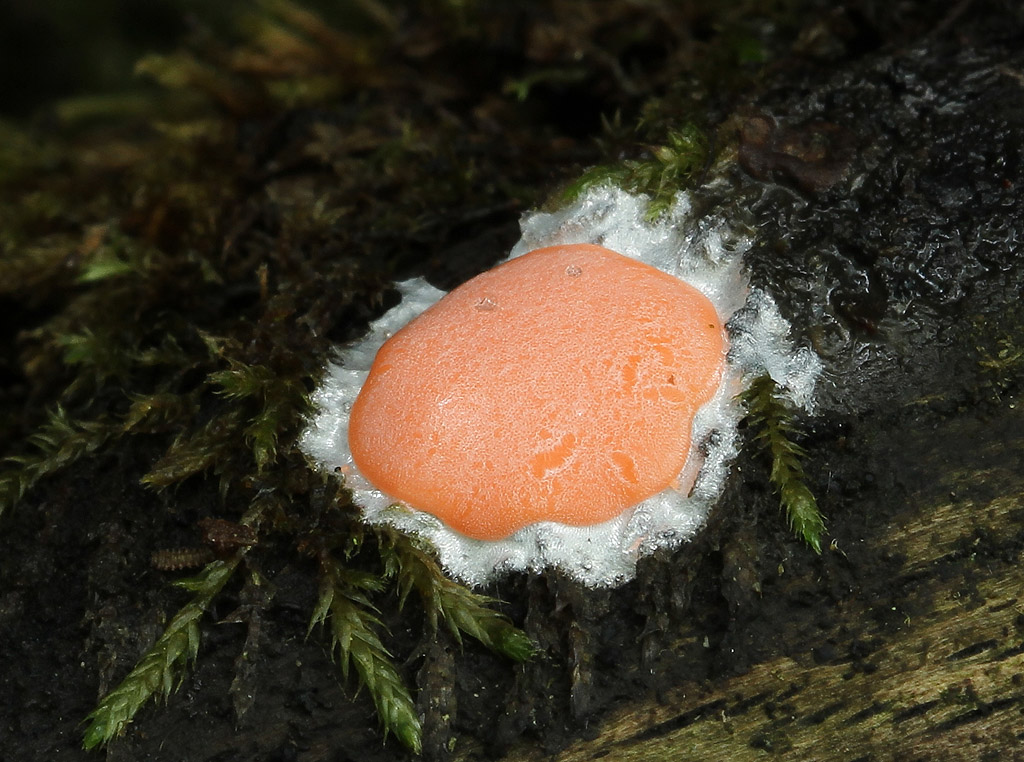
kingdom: Protozoa
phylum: Mycetozoa
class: Myxomycetes
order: Trichiales
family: Dictydiaethaliaceae
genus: Dictydiaethalium
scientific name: Dictydiaethalium plumbeum
